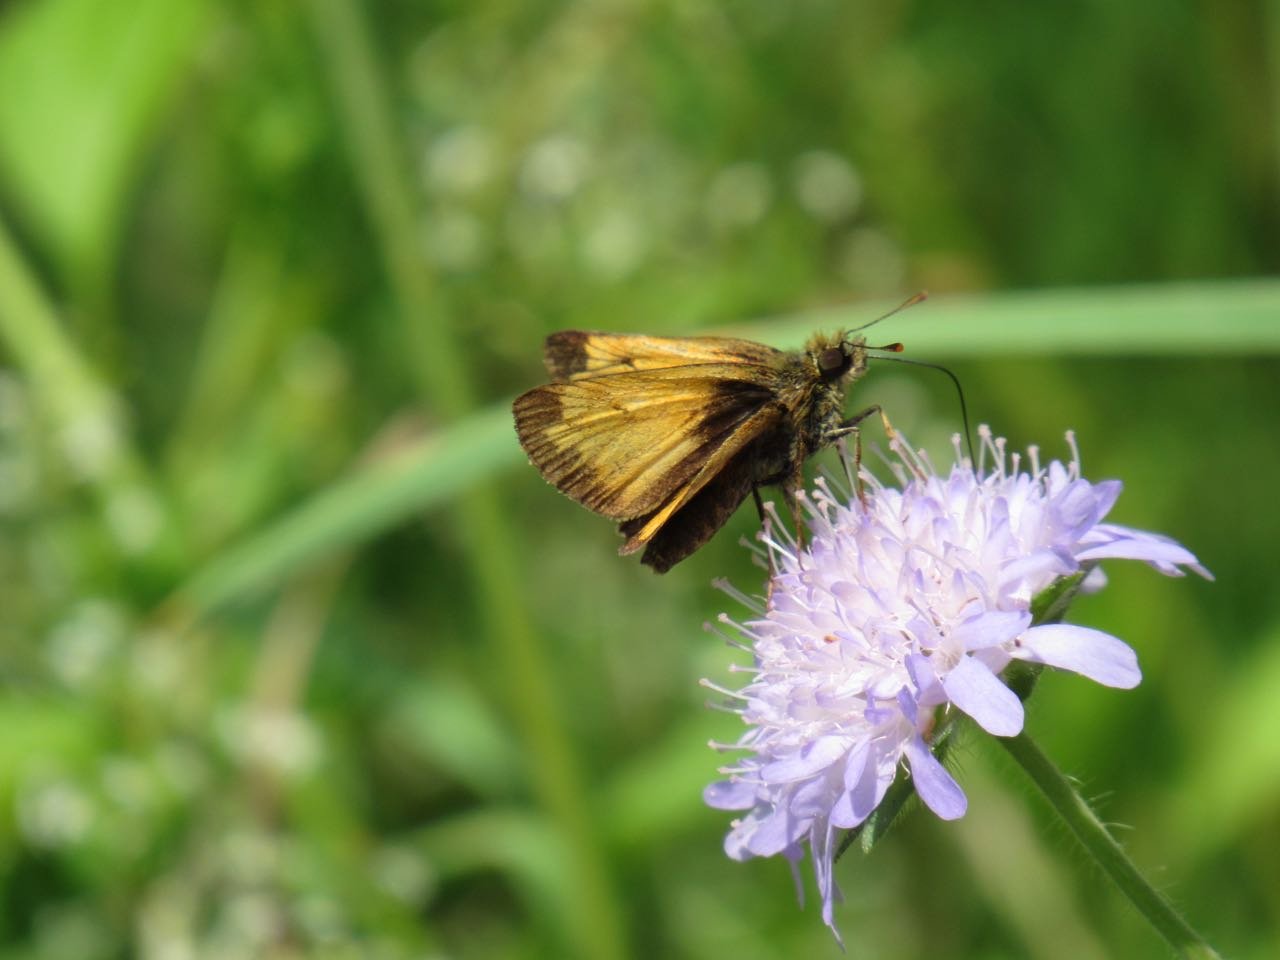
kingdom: Animalia
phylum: Arthropoda
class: Insecta
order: Lepidoptera
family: Hesperiidae
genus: Lon
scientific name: Lon hobomok
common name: Hobomok Skipper
